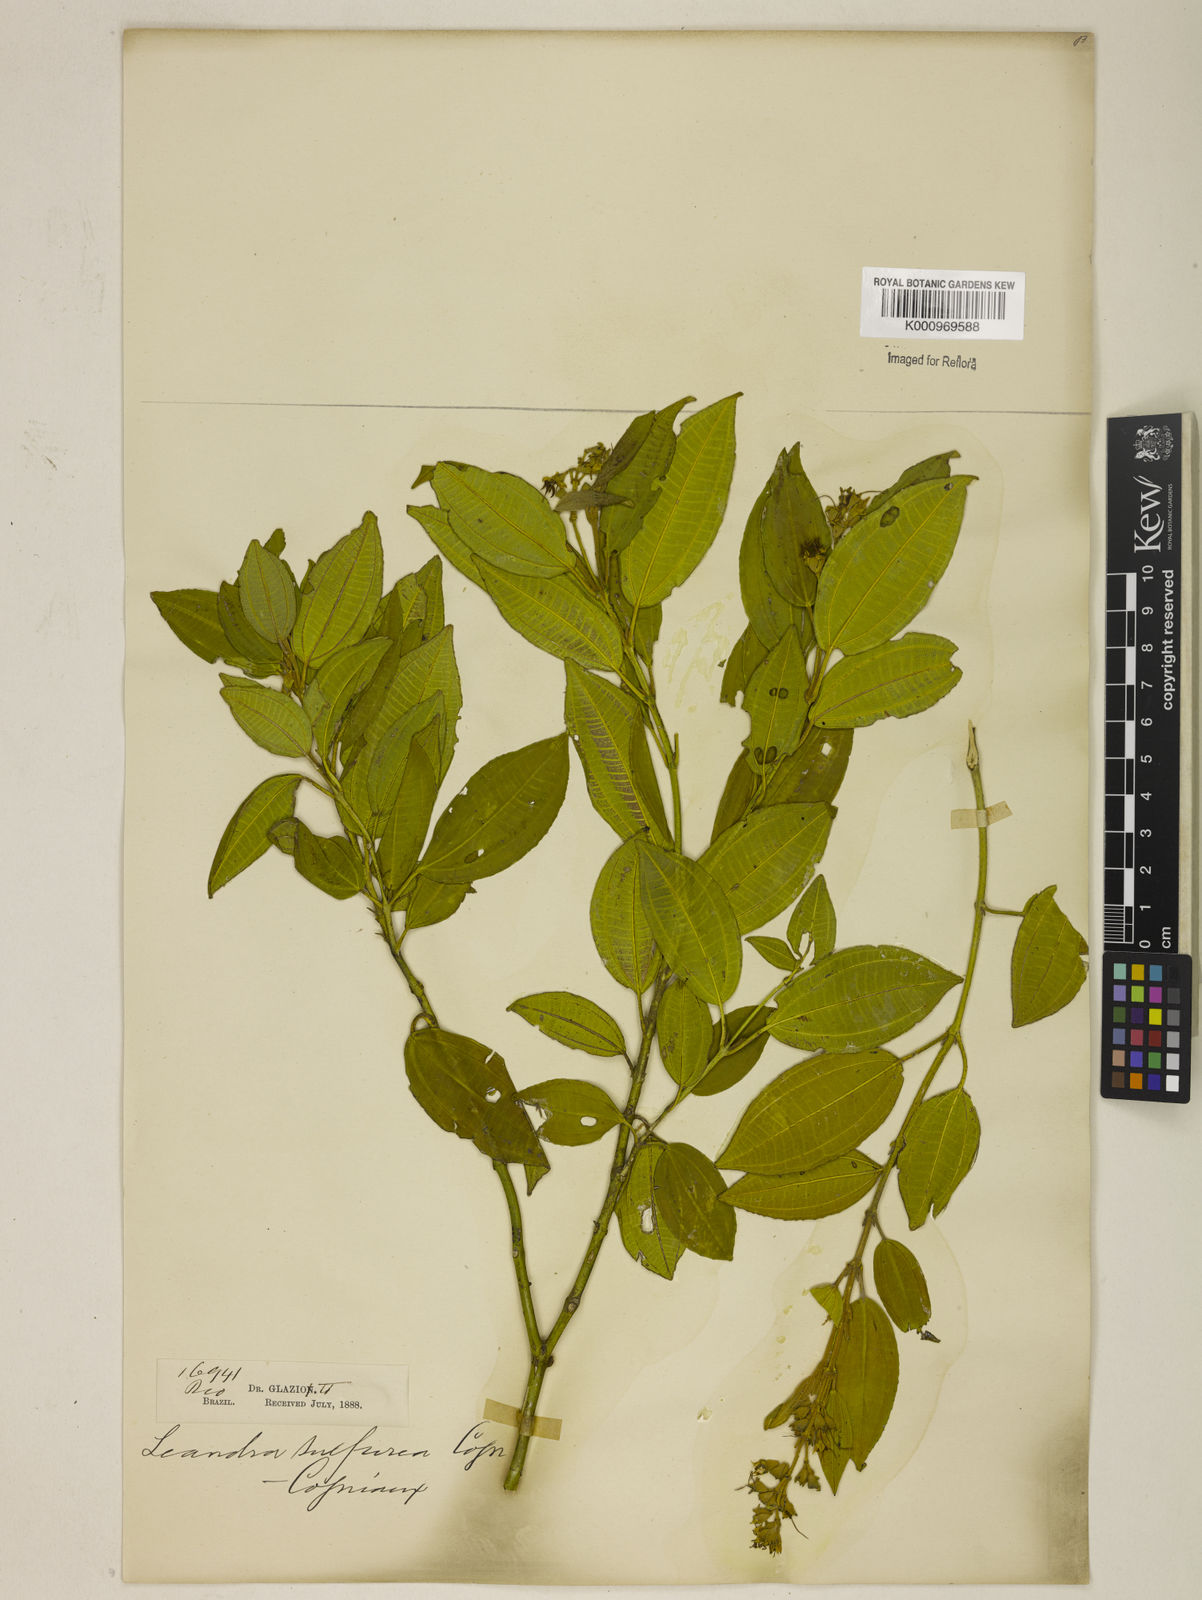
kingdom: Plantae
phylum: Tracheophyta
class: Magnoliopsida
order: Myrtales
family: Melastomataceae
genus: Miconia
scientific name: Miconia sulfurea
